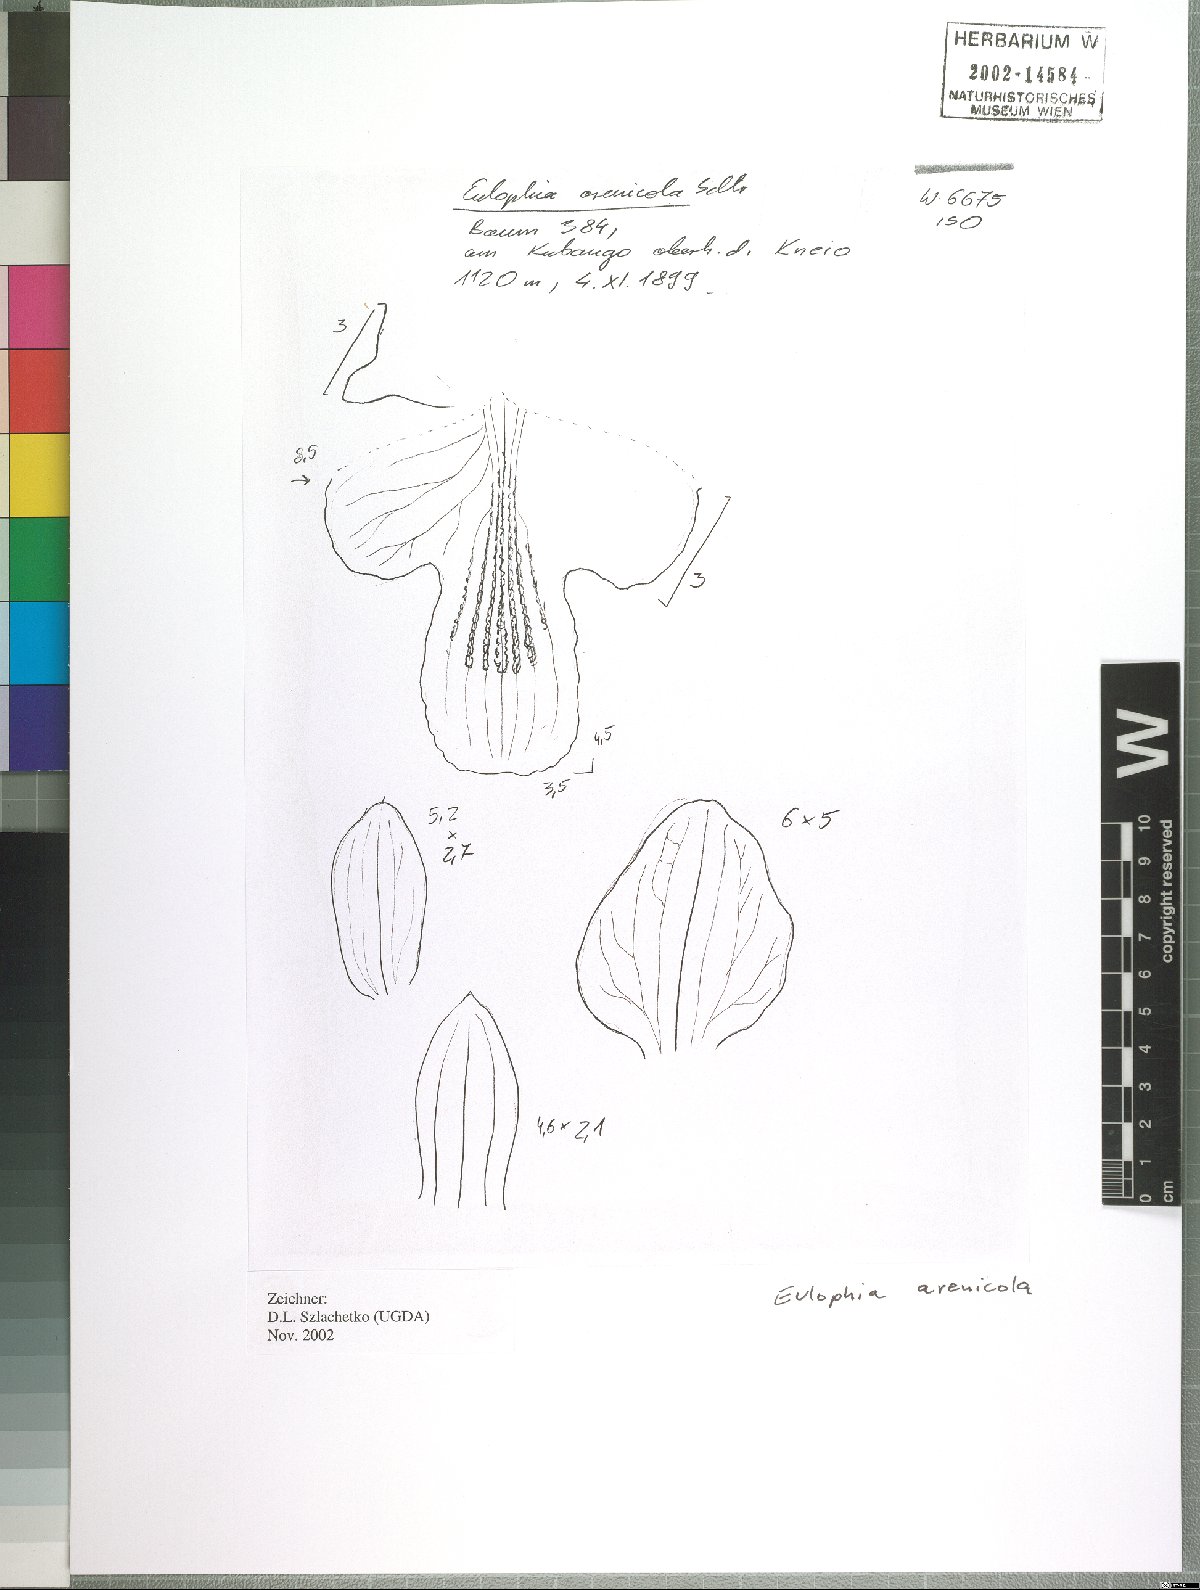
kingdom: Plantae
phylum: Tracheophyta
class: Liliopsida
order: Asparagales
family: Orchidaceae
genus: Eulophia
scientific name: Eulophia arenicola
